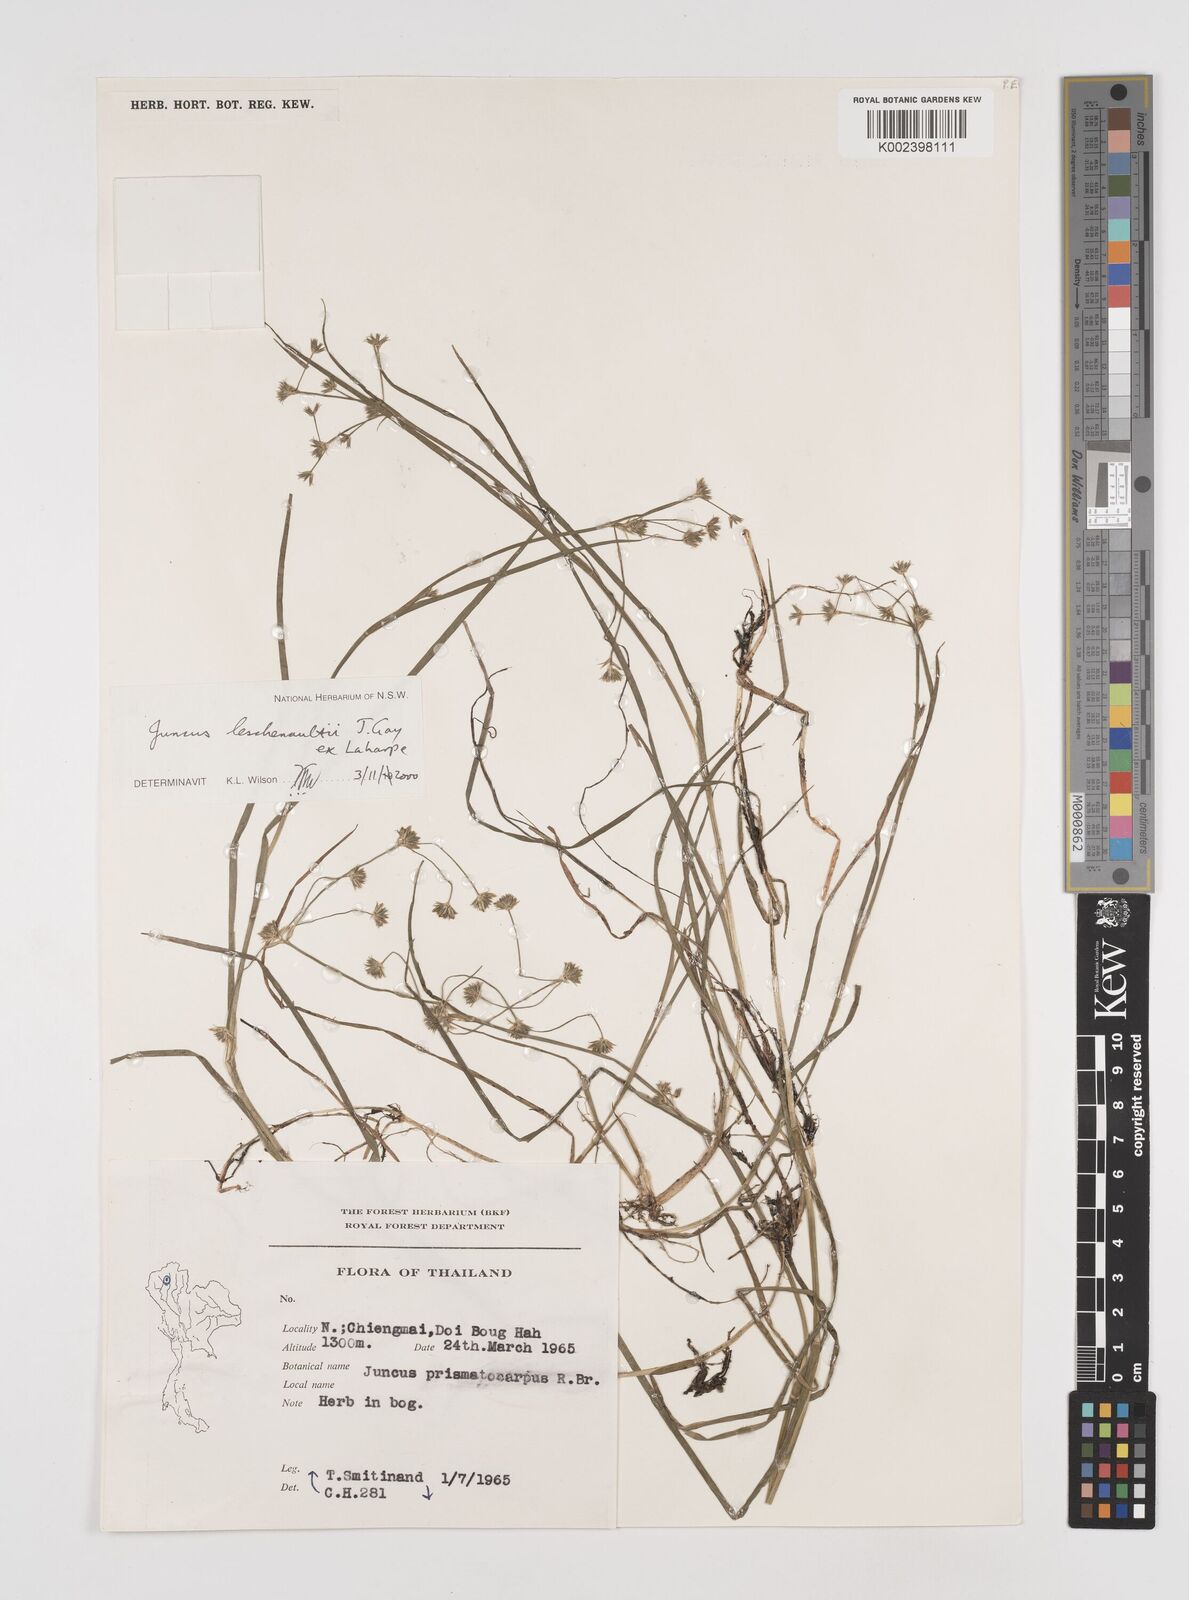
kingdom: Plantae
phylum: Tracheophyta
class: Liliopsida
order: Poales
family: Juncaceae
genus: Juncus
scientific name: Juncus prismatocarpus
